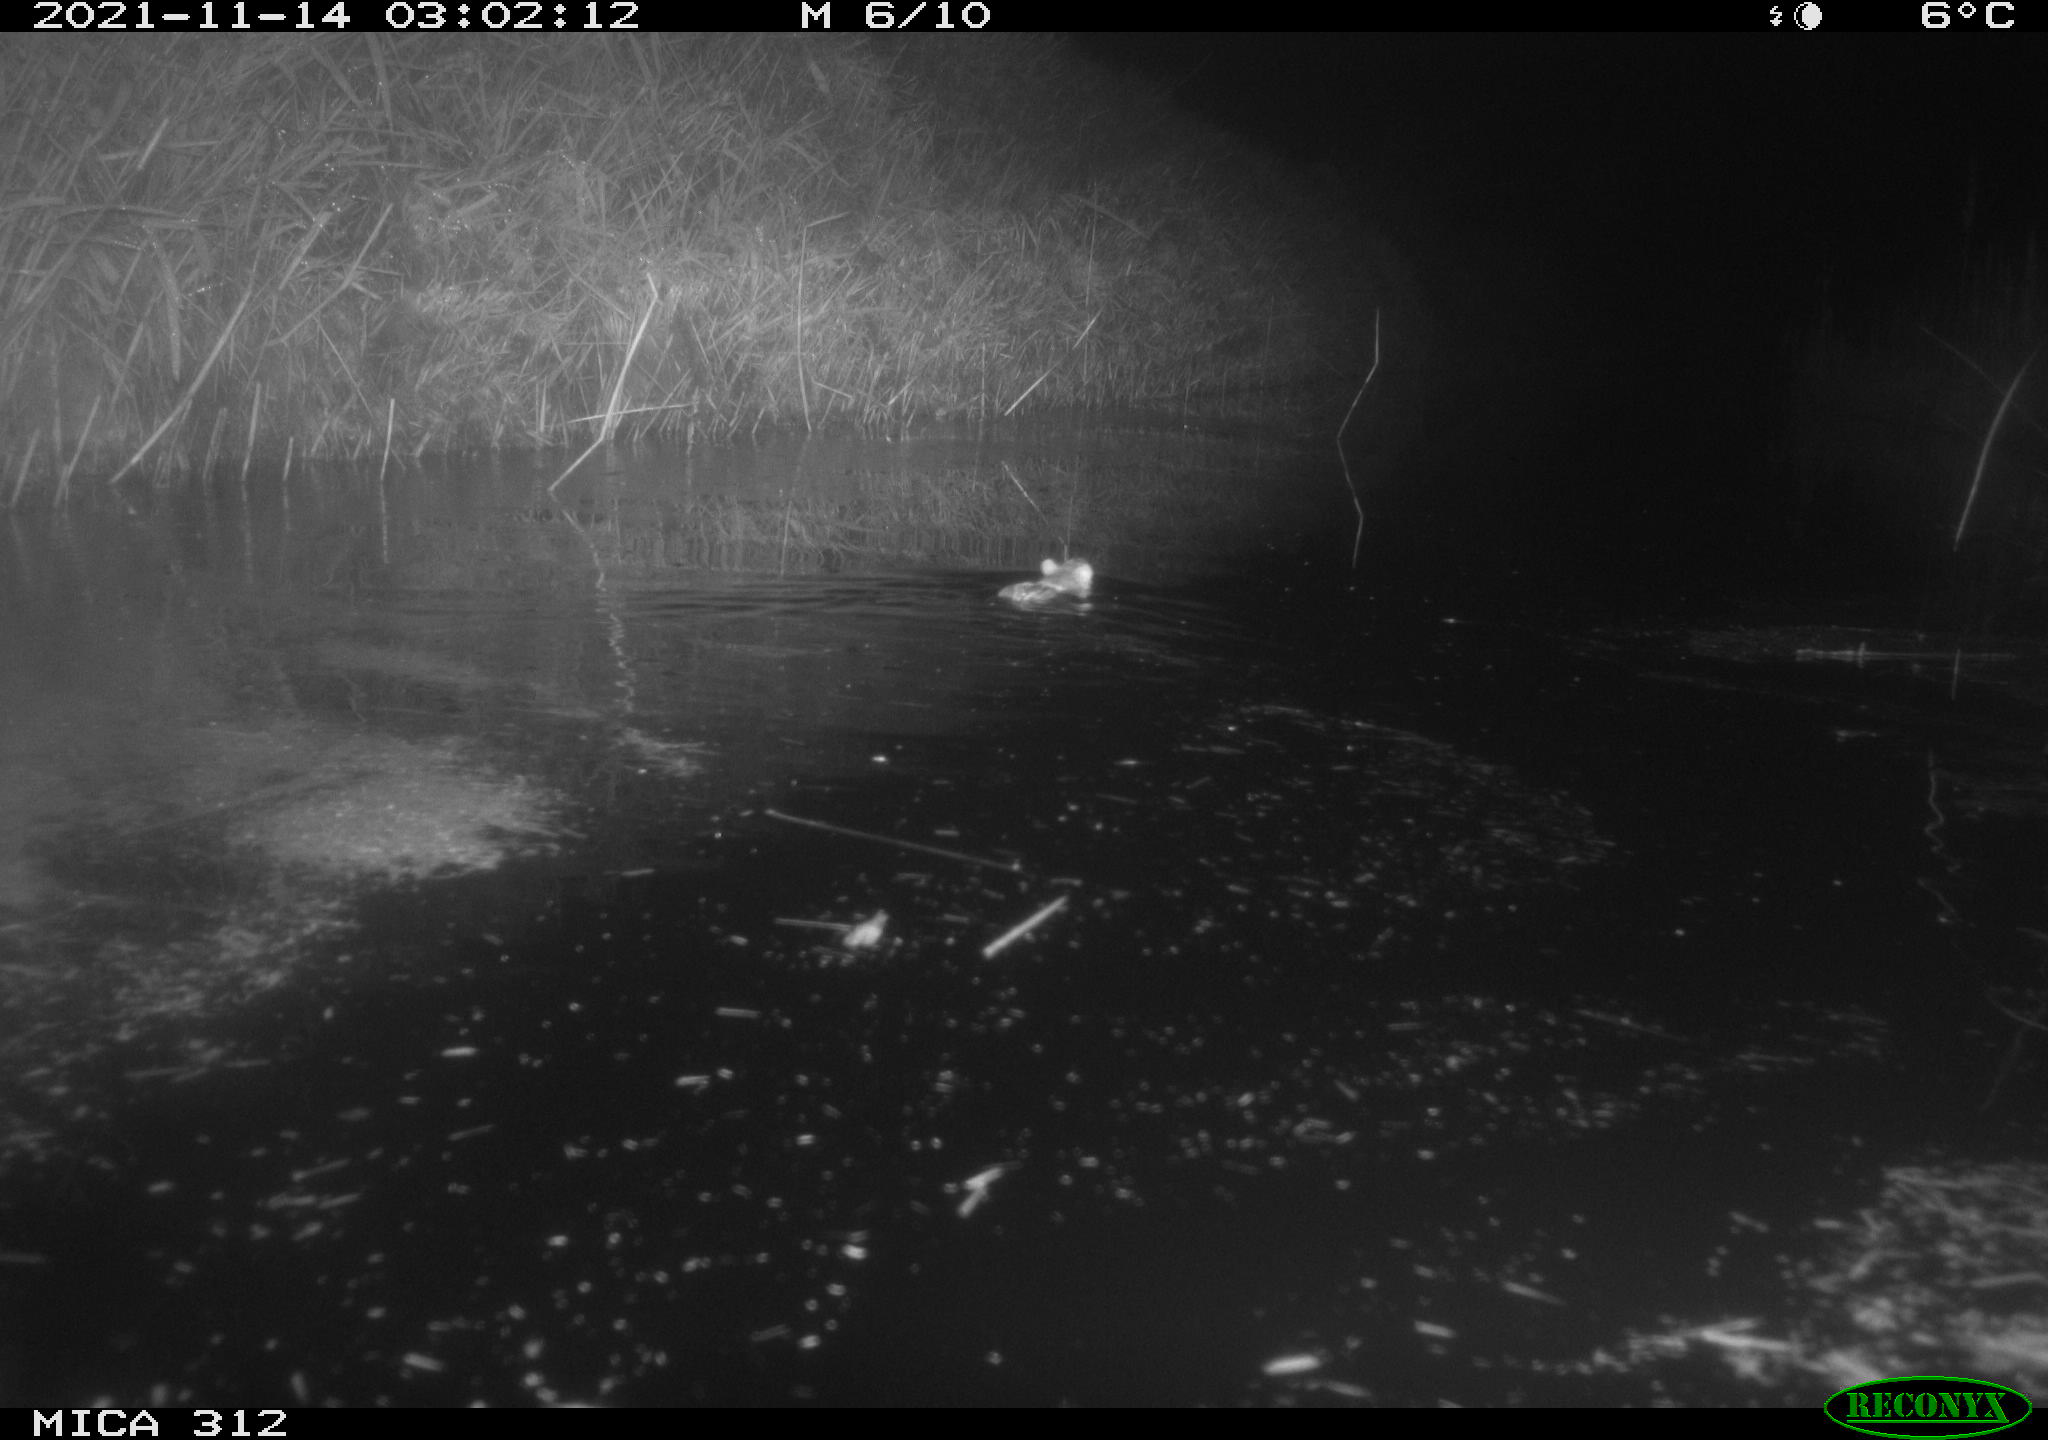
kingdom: Animalia
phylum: Chordata
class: Mammalia
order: Rodentia
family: Muridae
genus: Rattus
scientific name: Rattus norvegicus
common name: Brown rat
